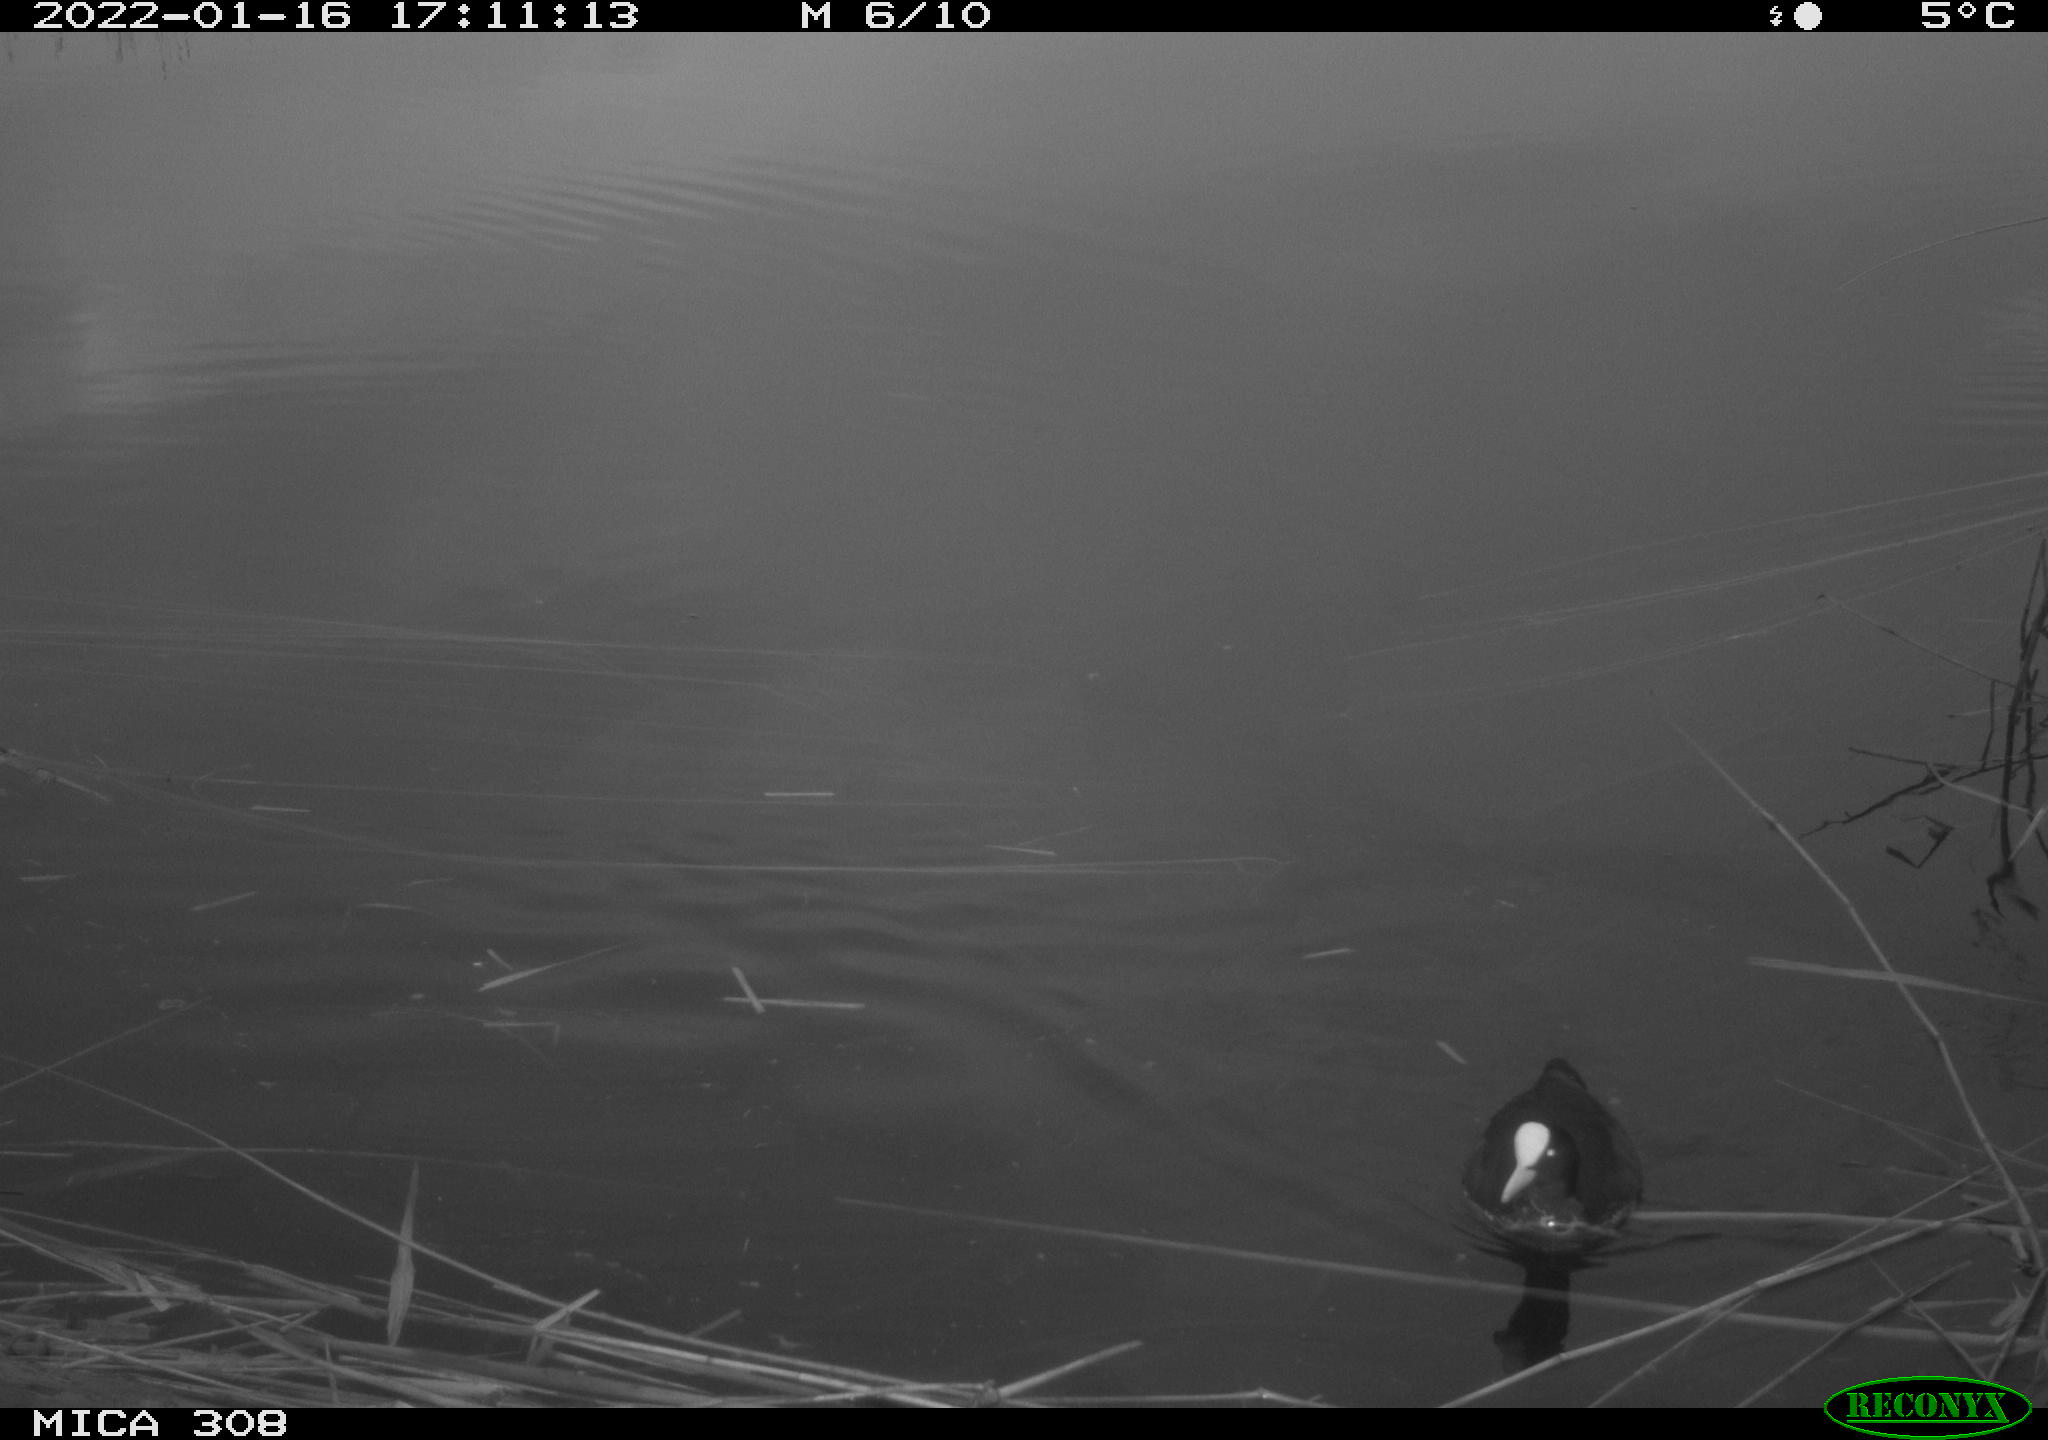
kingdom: Animalia
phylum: Chordata
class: Aves
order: Gruiformes
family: Rallidae
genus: Gallinula
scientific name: Gallinula chloropus
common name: Common moorhen
